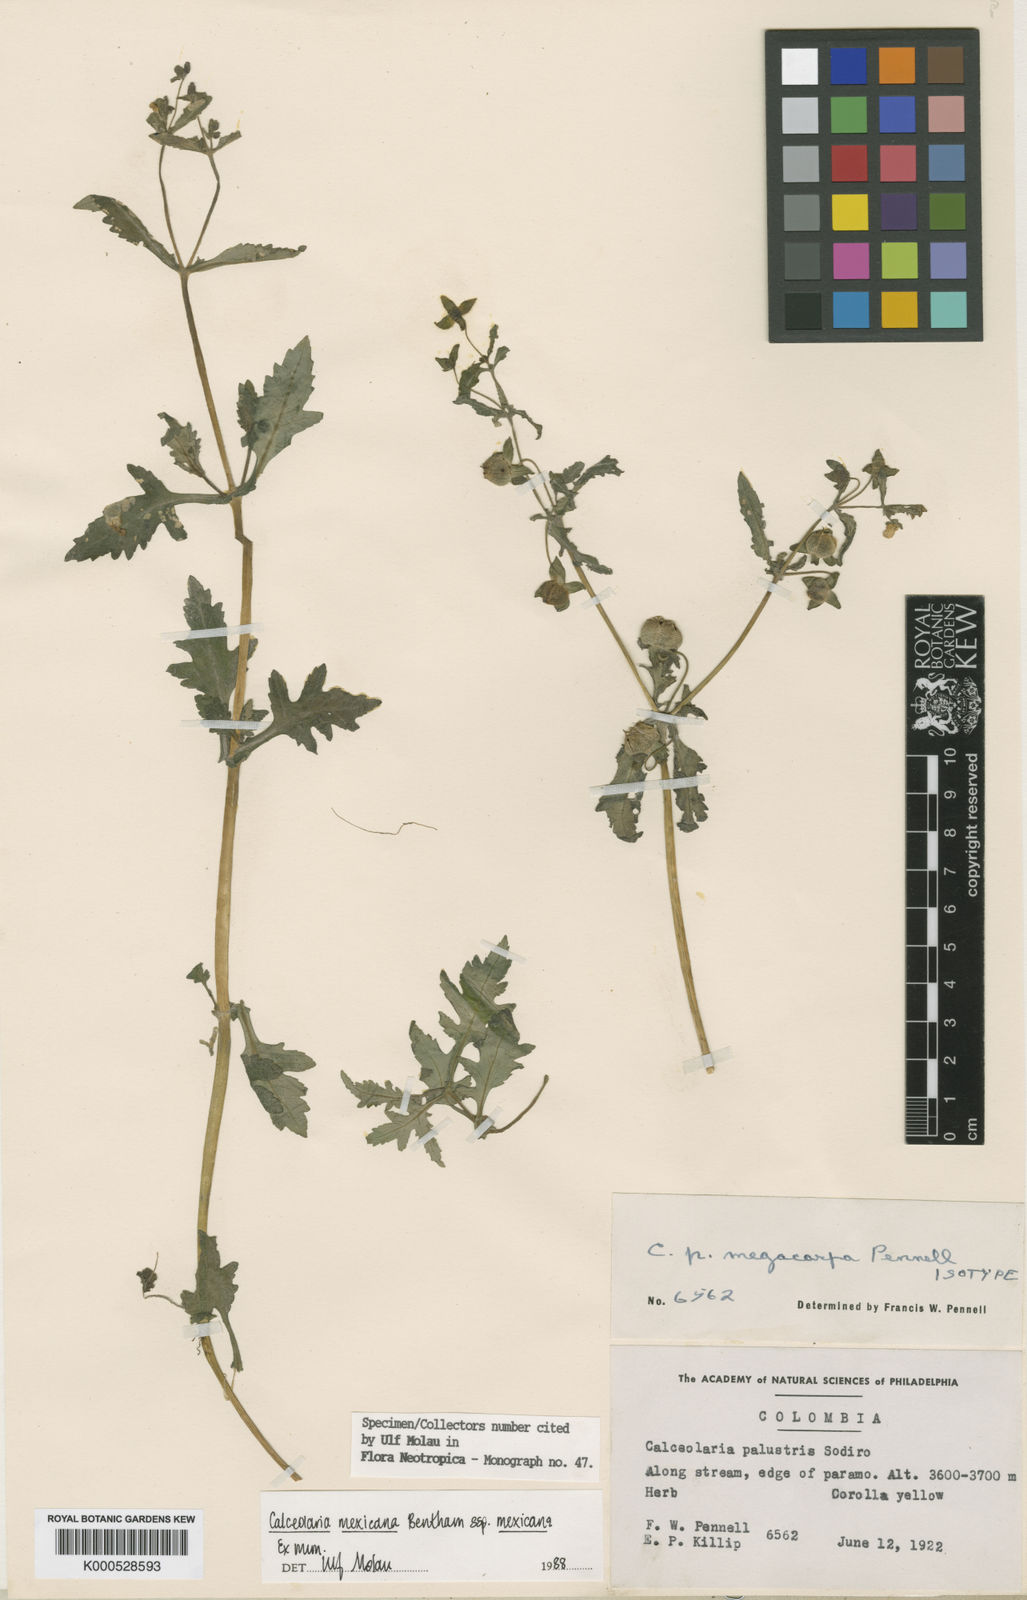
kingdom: Plantae
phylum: Tracheophyta
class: Magnoliopsida
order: Lamiales
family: Calceolariaceae
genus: Calceolaria
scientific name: Calceolaria mexicana
